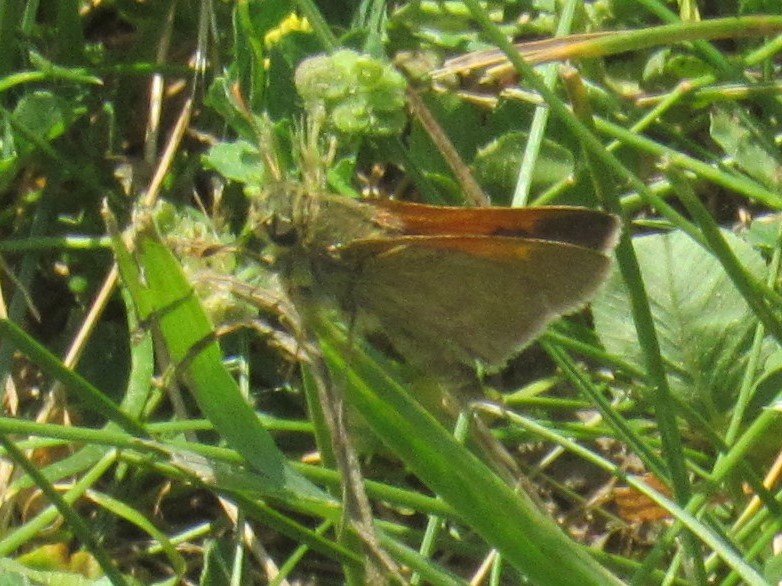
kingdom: Animalia
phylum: Arthropoda
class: Insecta
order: Lepidoptera
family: Hesperiidae
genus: Polites
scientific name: Polites themistocles
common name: Tawny-edged Skipper
